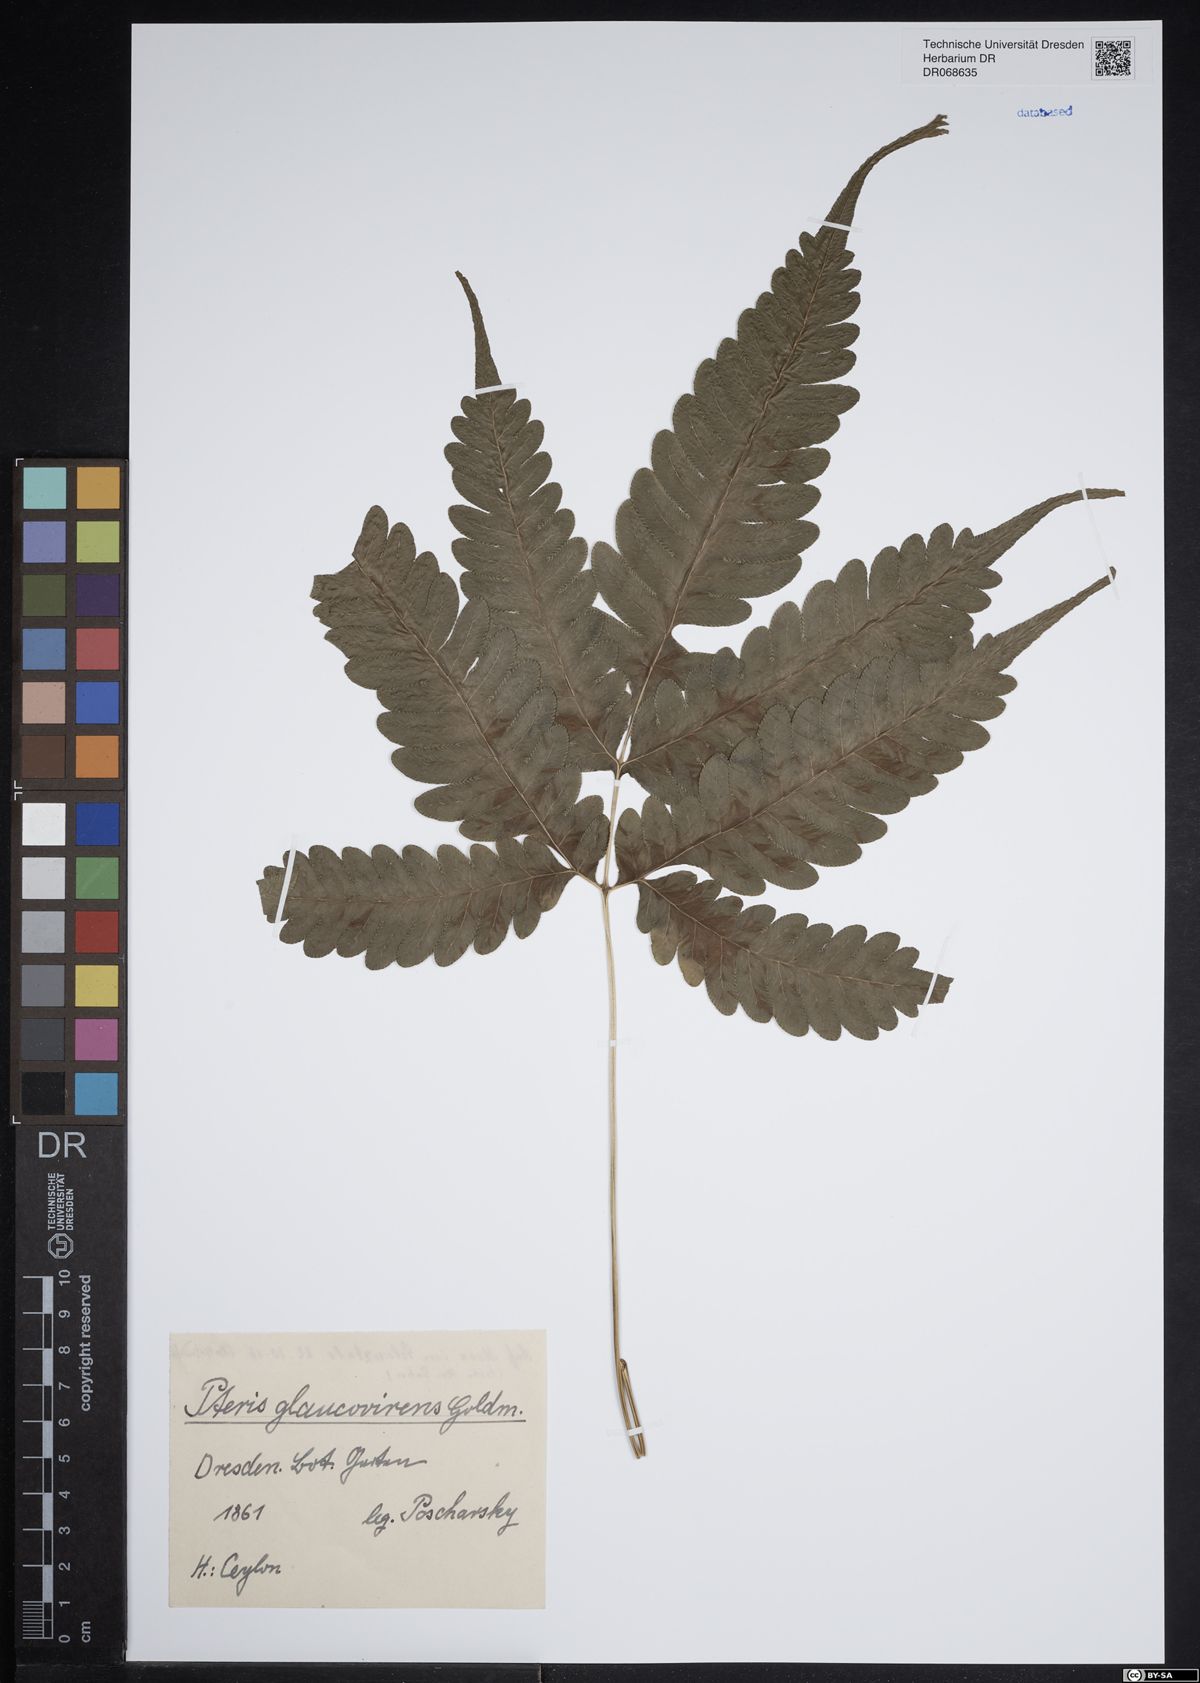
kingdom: Plantae
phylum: Tracheophyta
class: Polypodiopsida
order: Polypodiales
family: Pteridaceae
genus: Pteris
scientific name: Pteris glaucovirens
